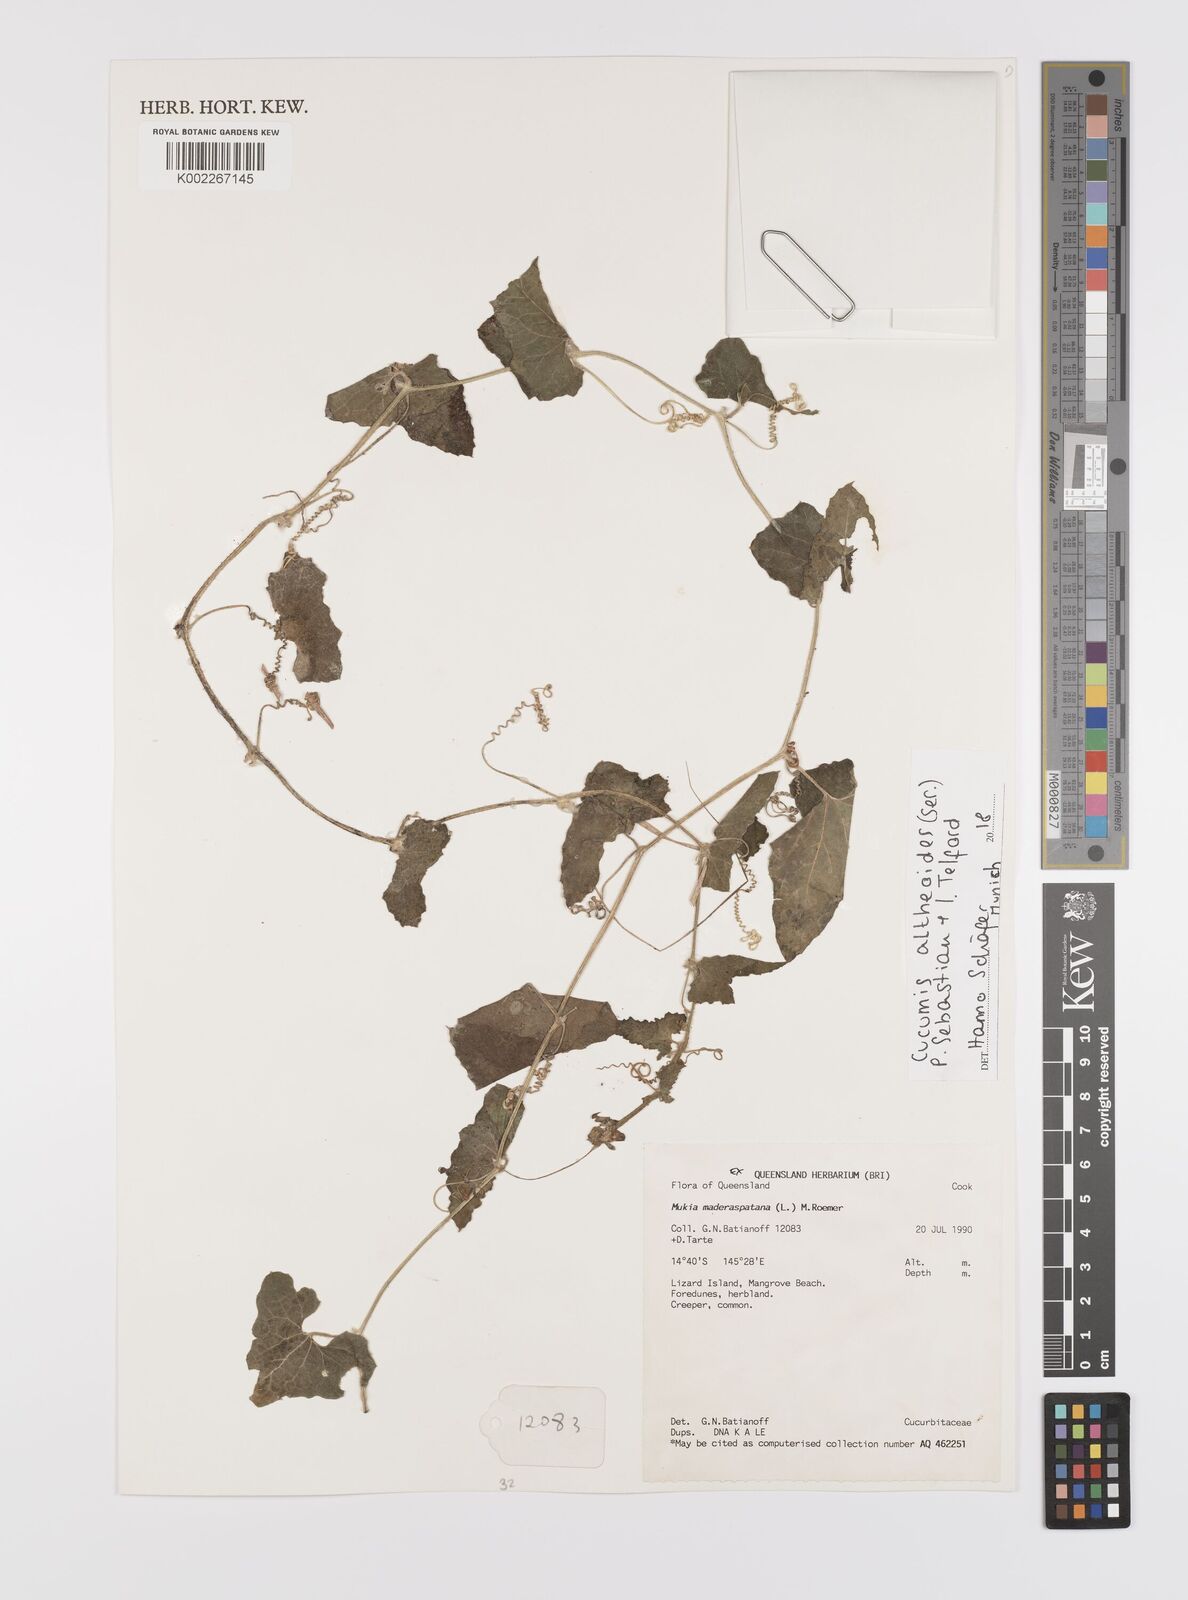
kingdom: Plantae
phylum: Tracheophyta
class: Magnoliopsida
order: Cucurbitales
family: Cucurbitaceae
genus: Cucumis
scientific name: Cucumis althaeoides
